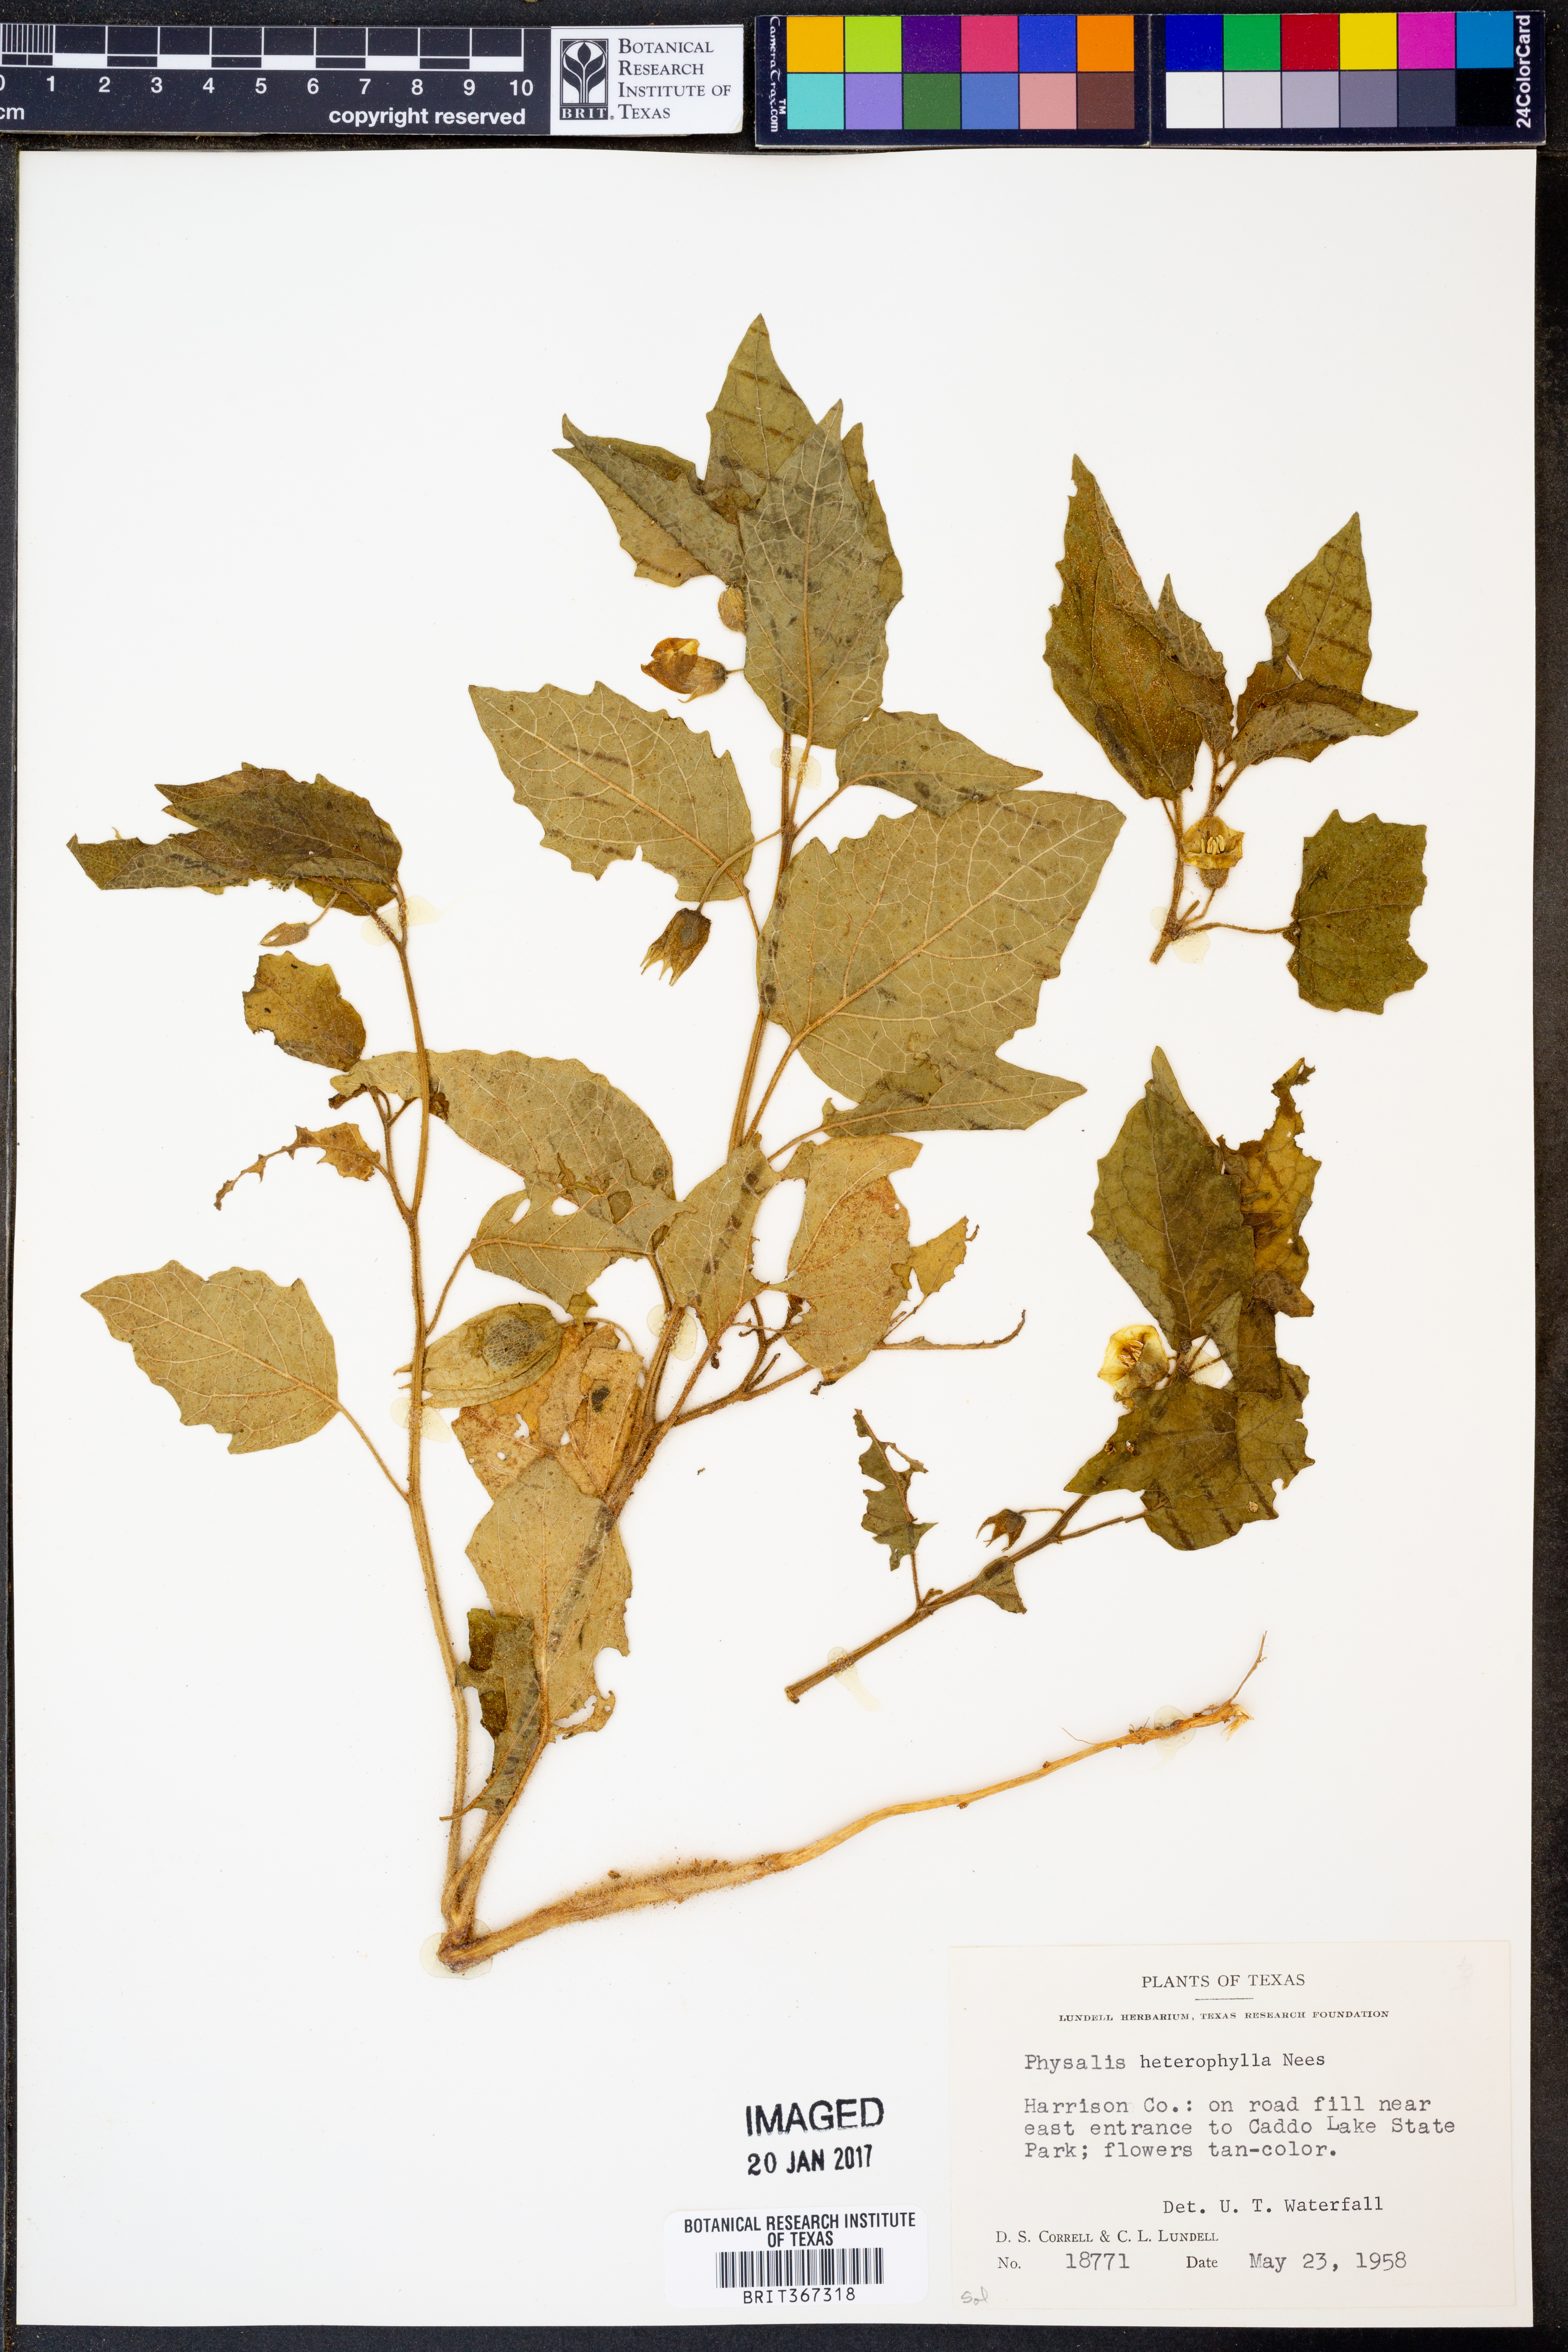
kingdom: Plantae
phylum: Tracheophyta
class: Magnoliopsida
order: Solanales
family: Solanaceae
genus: Physalis
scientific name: Physalis heterophylla
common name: Clammy ground-cherry
